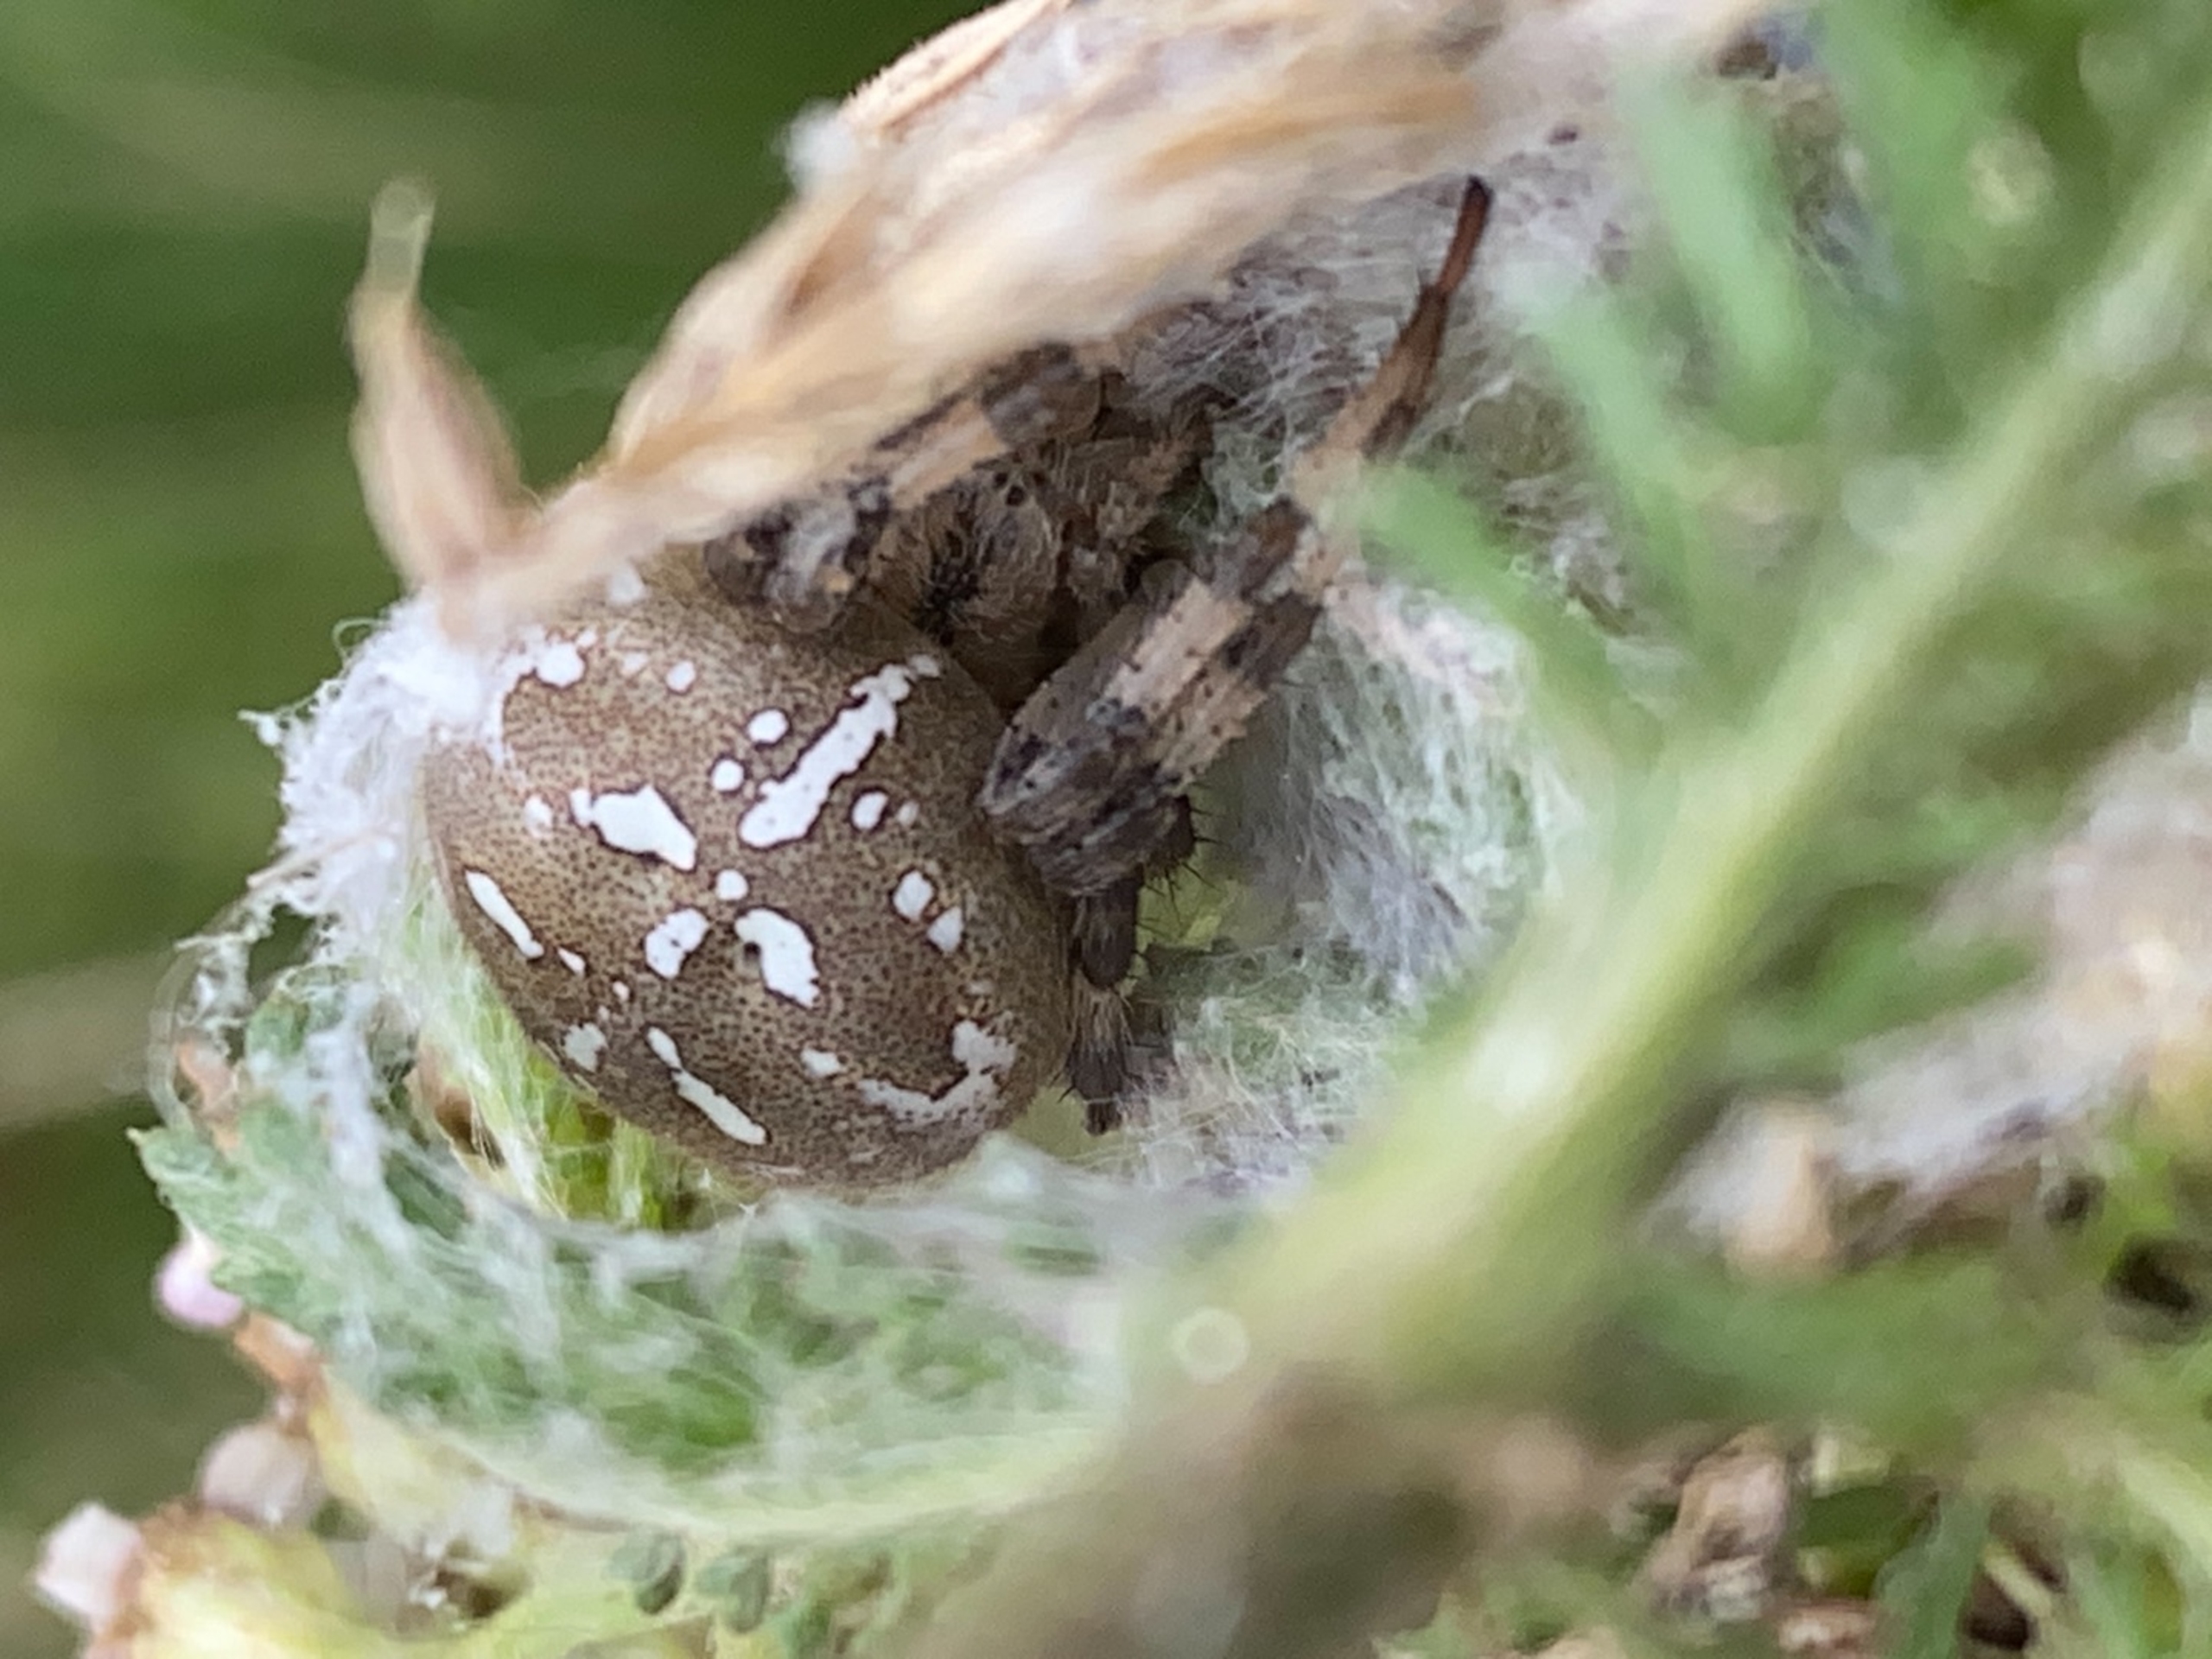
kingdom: Animalia
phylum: Arthropoda
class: Arachnida
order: Araneae
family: Araneidae
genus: Araneus
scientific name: Araneus quadratus
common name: Kvadratedderkop
